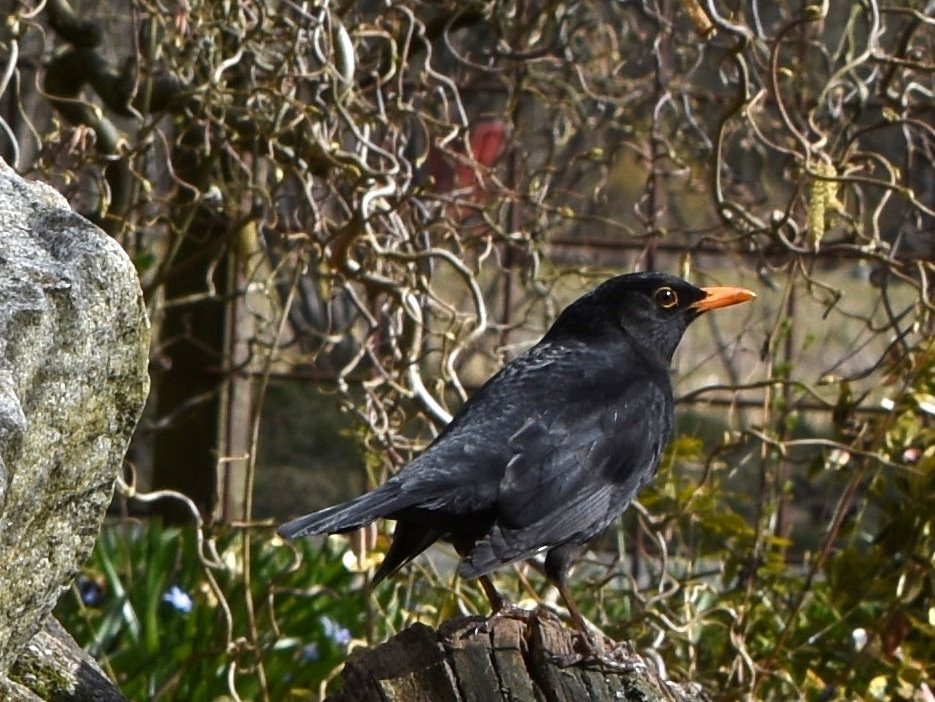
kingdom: Animalia
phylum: Chordata
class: Aves
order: Passeriformes
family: Turdidae
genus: Turdus
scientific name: Turdus merula
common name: Solsort
